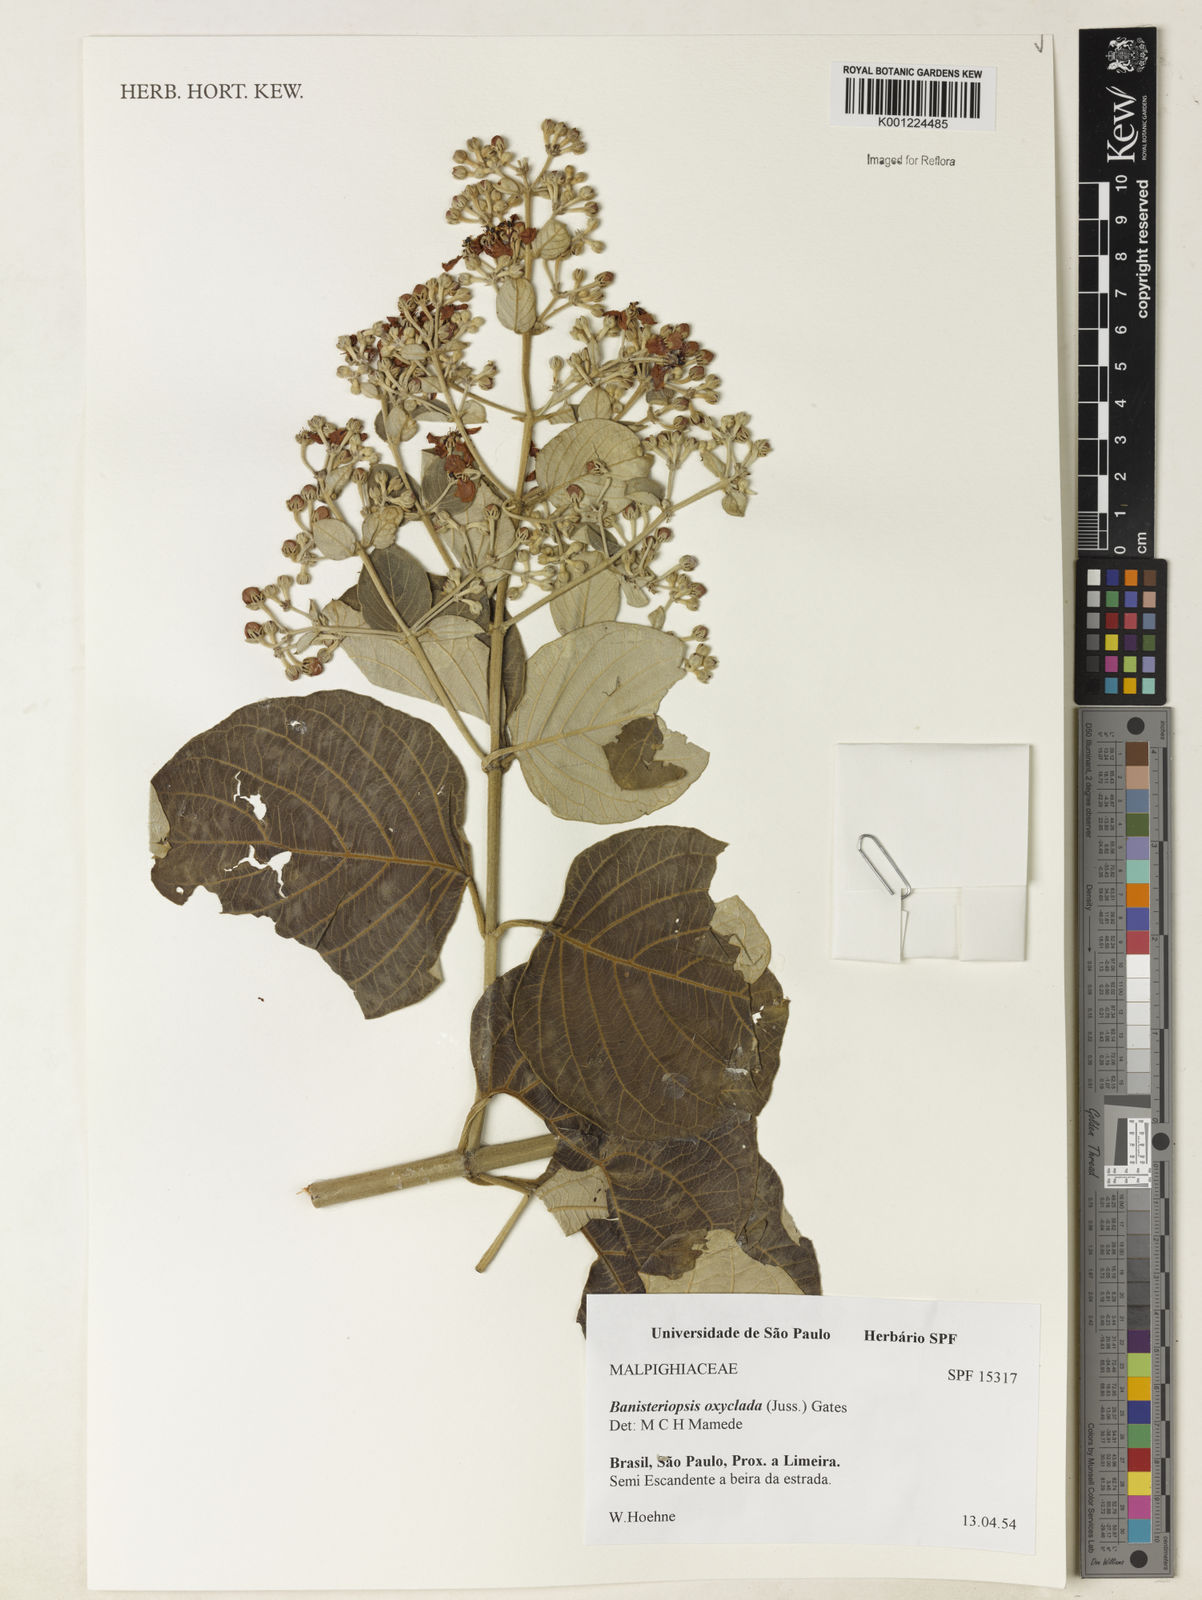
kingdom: Plantae
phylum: Tracheophyta
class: Magnoliopsida
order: Malpighiales
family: Malpighiaceae
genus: Banisteriopsis
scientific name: Banisteriopsis oxyclada
